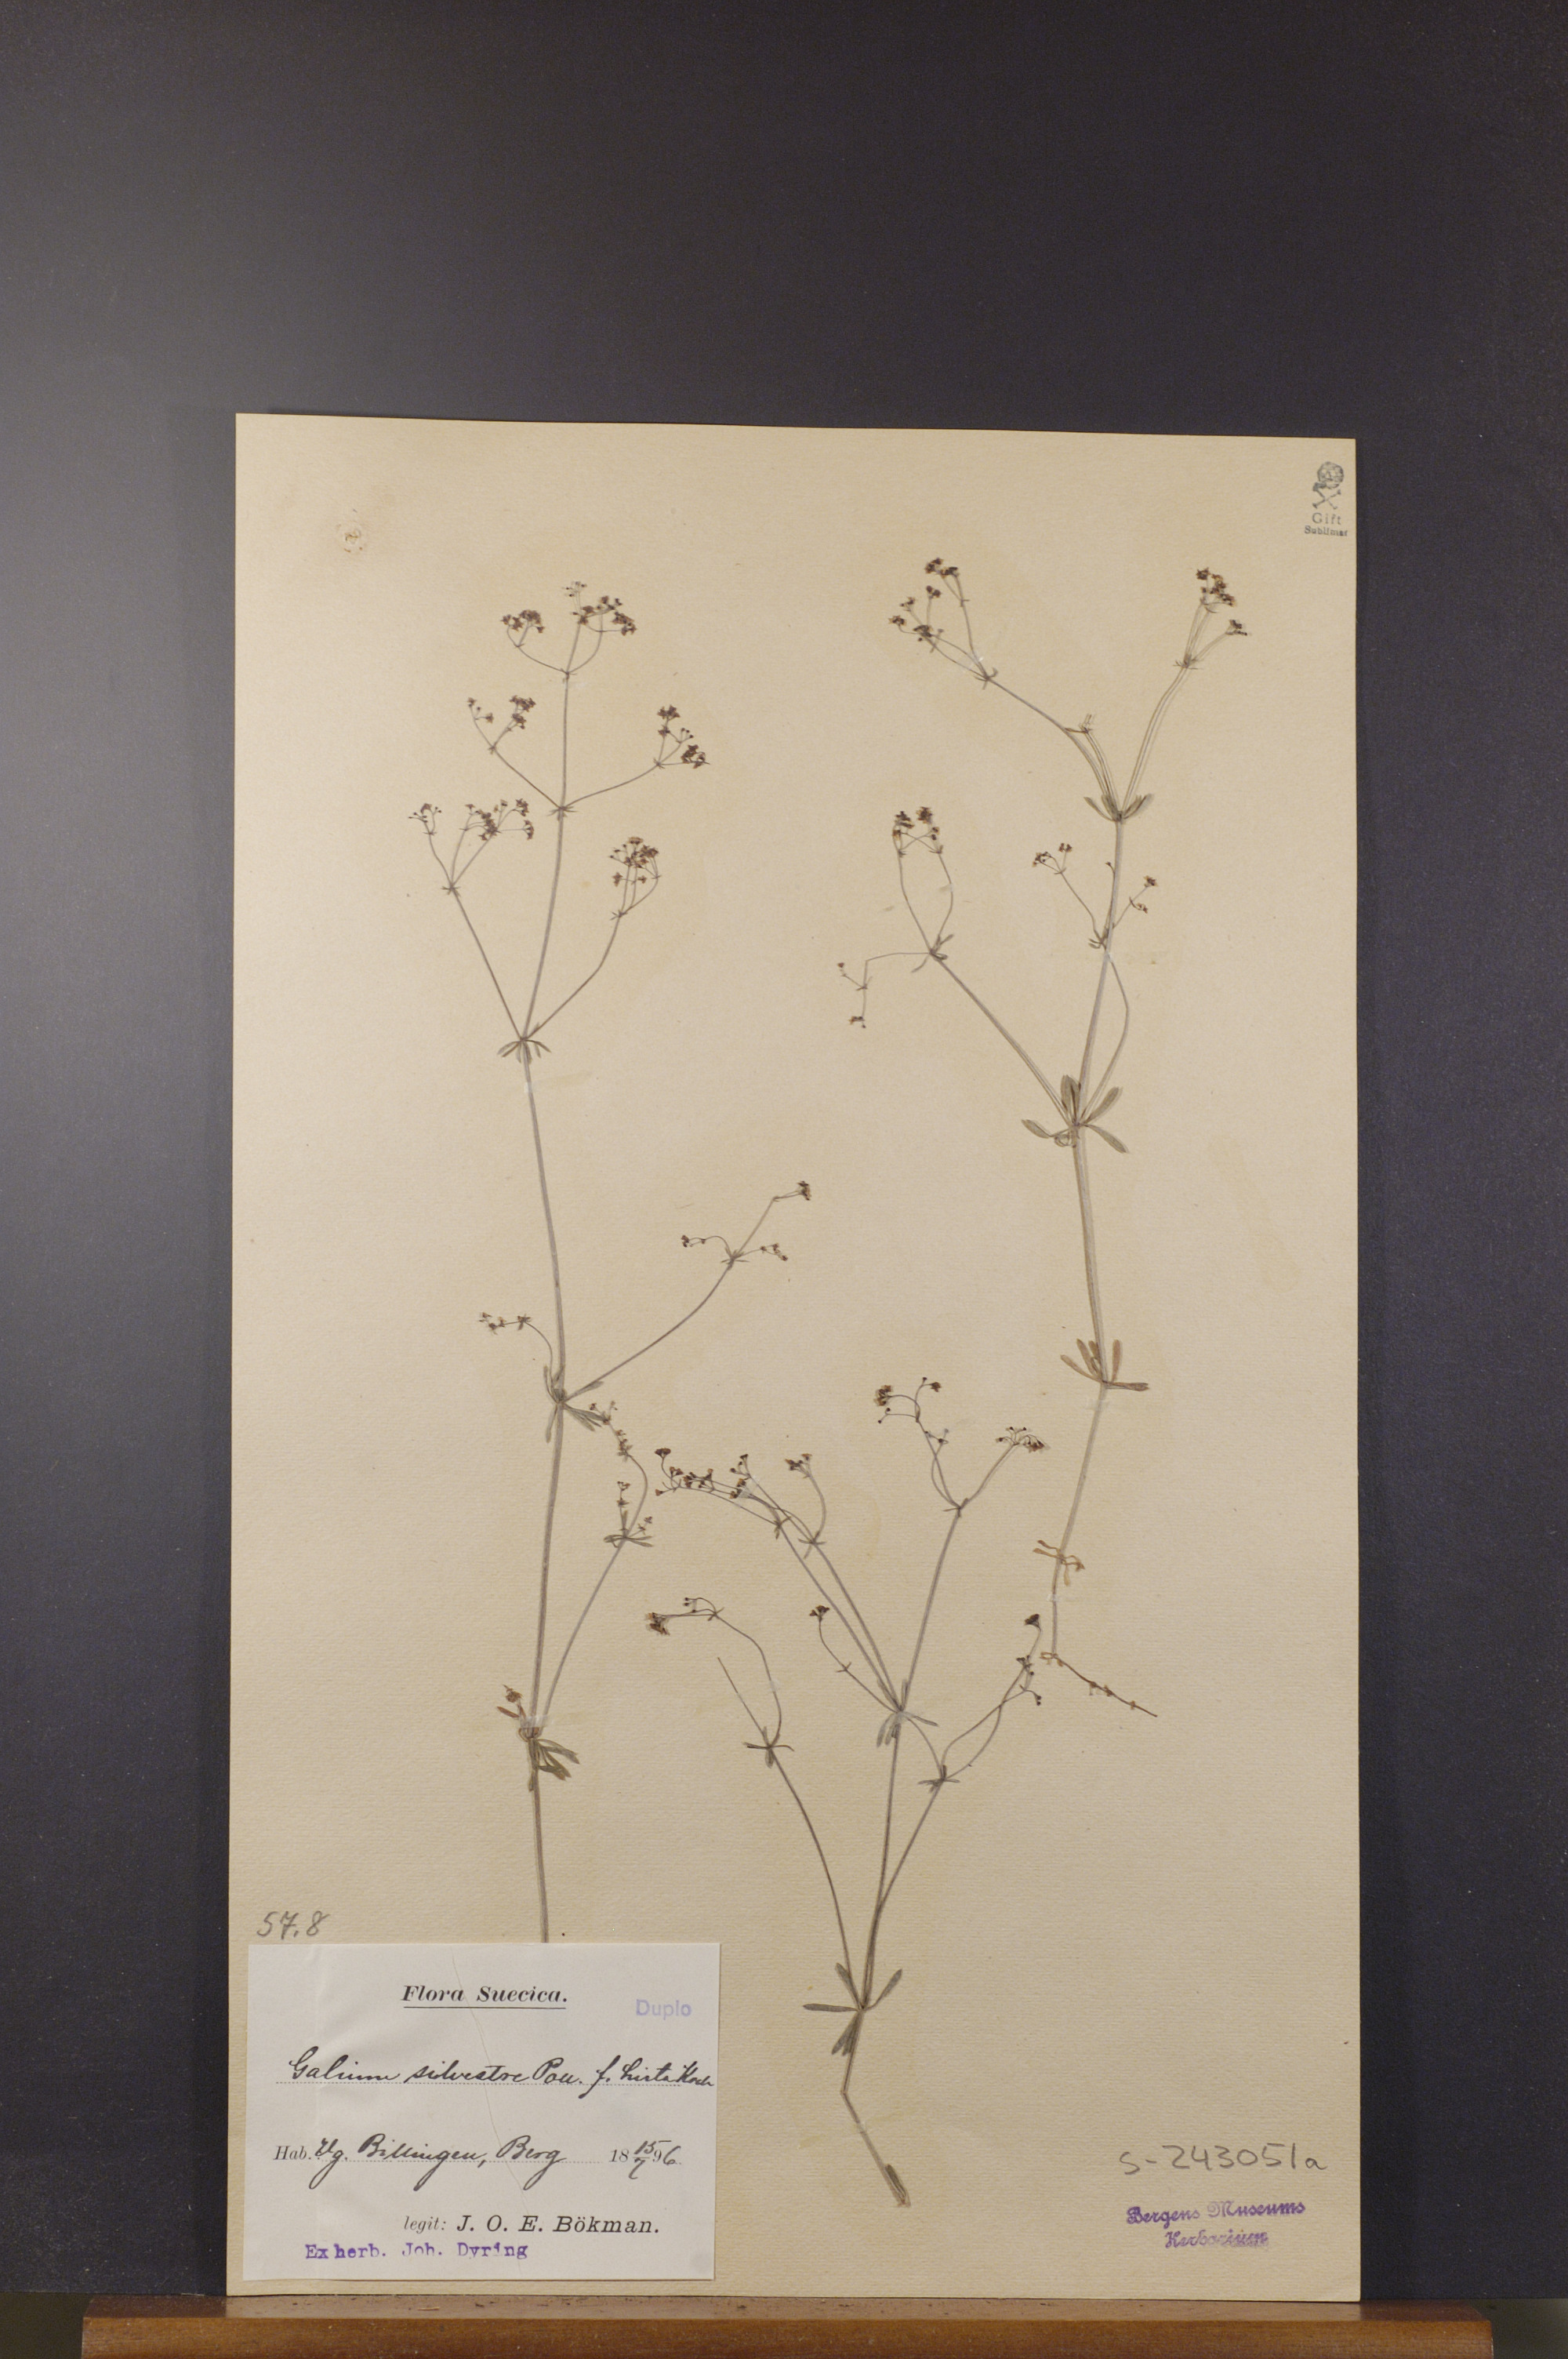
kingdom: Plantae
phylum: Tracheophyta
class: Magnoliopsida
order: Gentianales
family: Rubiaceae
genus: Galium
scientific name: Galium pumilum
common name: Slender bedstraw
